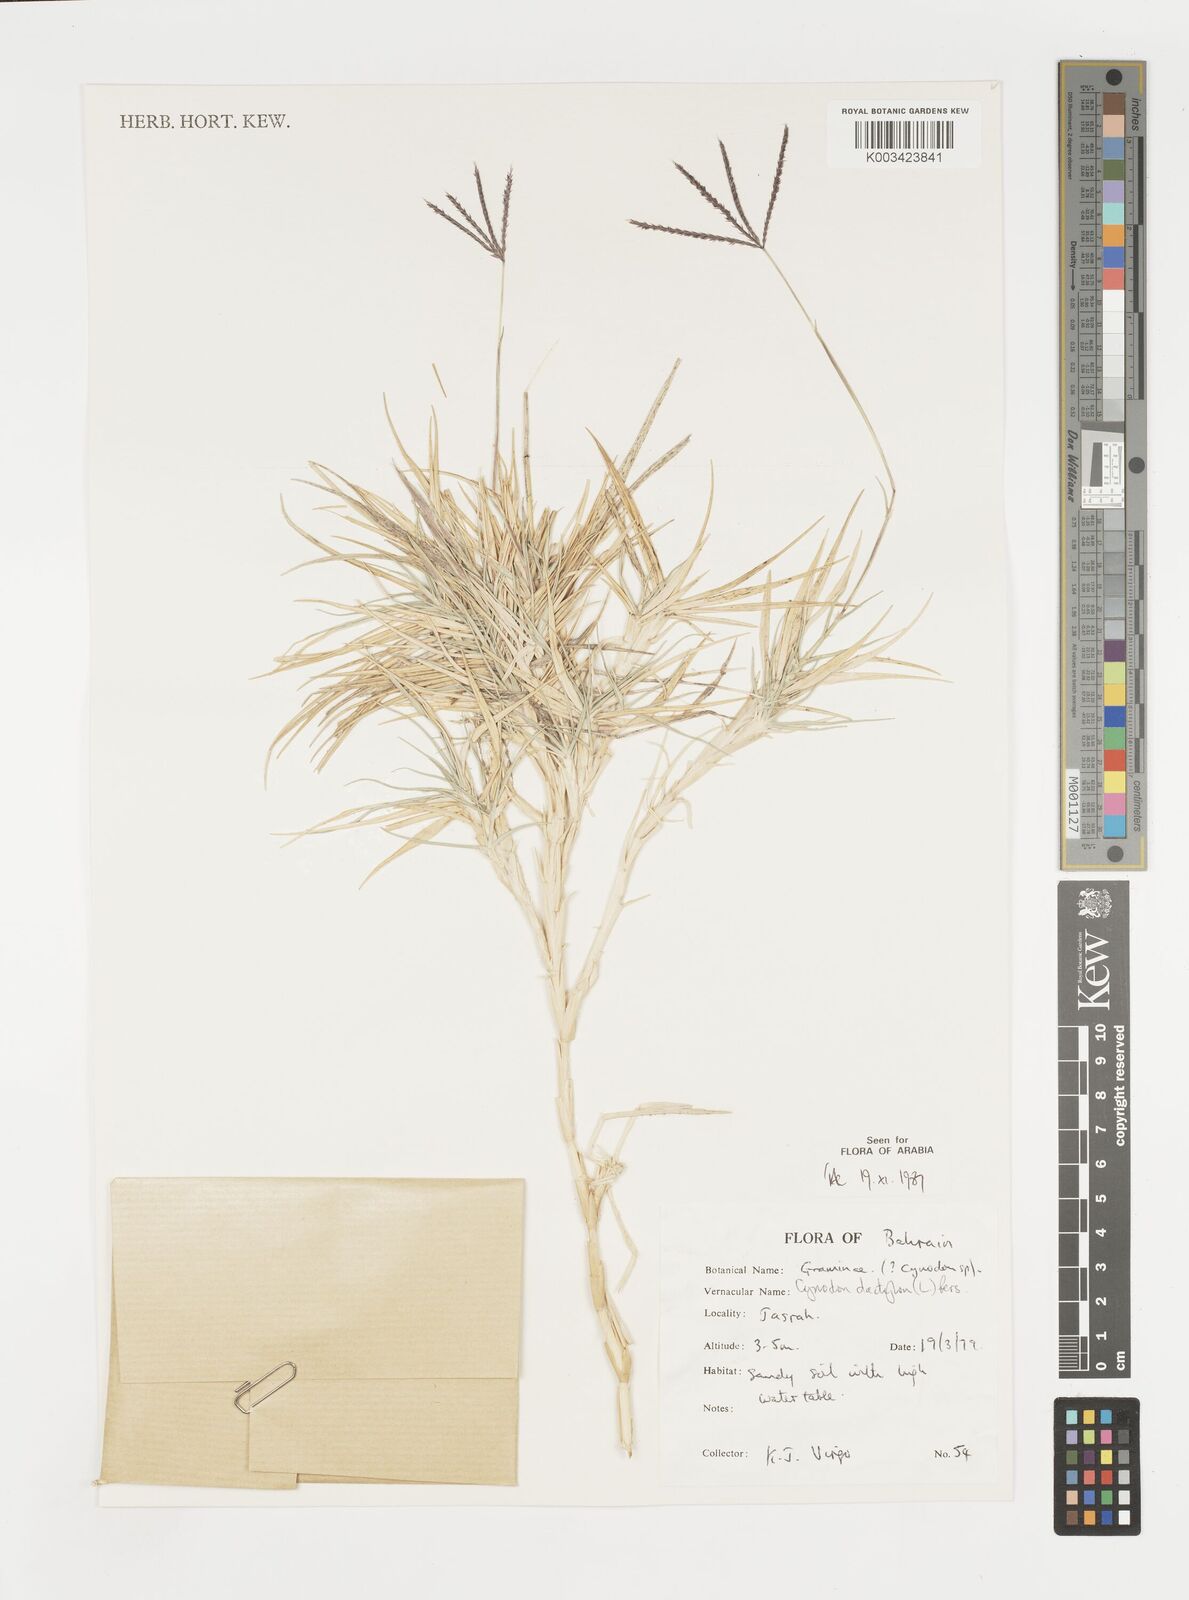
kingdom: Plantae
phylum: Tracheophyta
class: Liliopsida
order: Poales
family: Poaceae
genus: Cynodon
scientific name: Cynodon dactylon
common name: Bermuda grass
